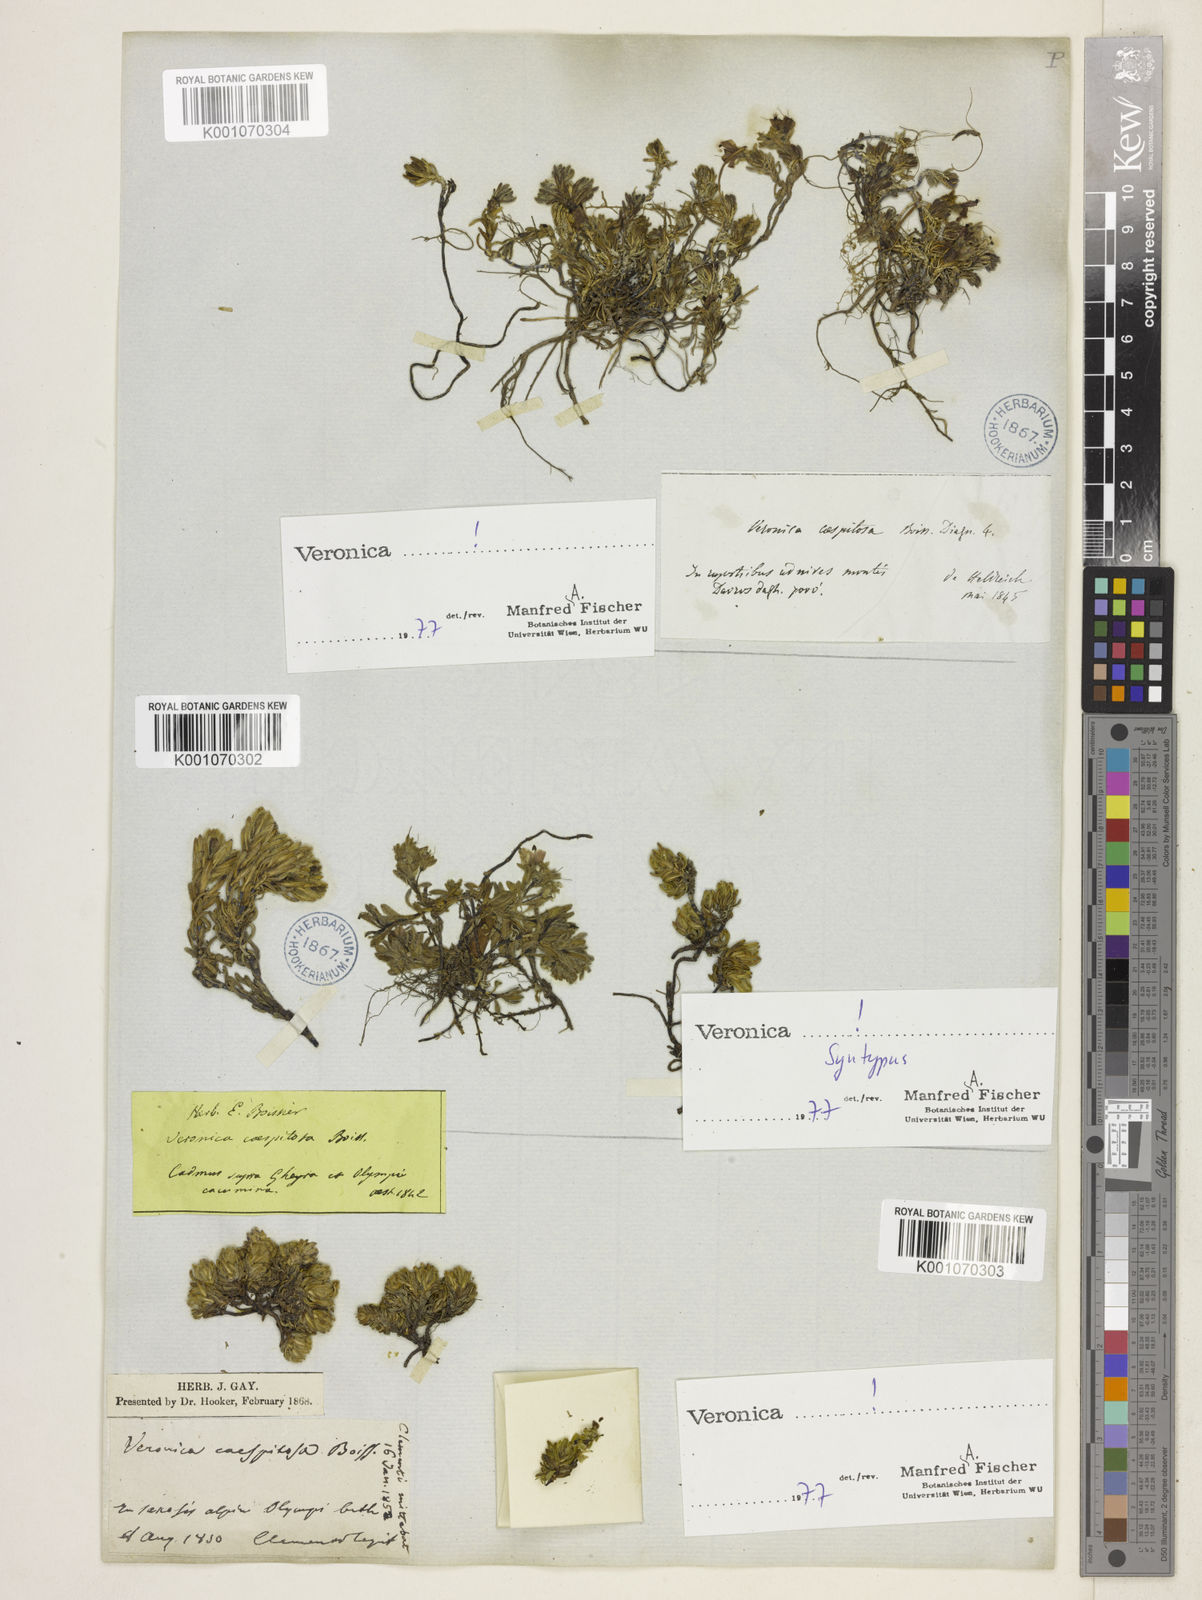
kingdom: Plantae
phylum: Tracheophyta
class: Magnoliopsida
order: Lamiales
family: Plantaginaceae
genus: Veronica
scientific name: Veronica caespitosa
